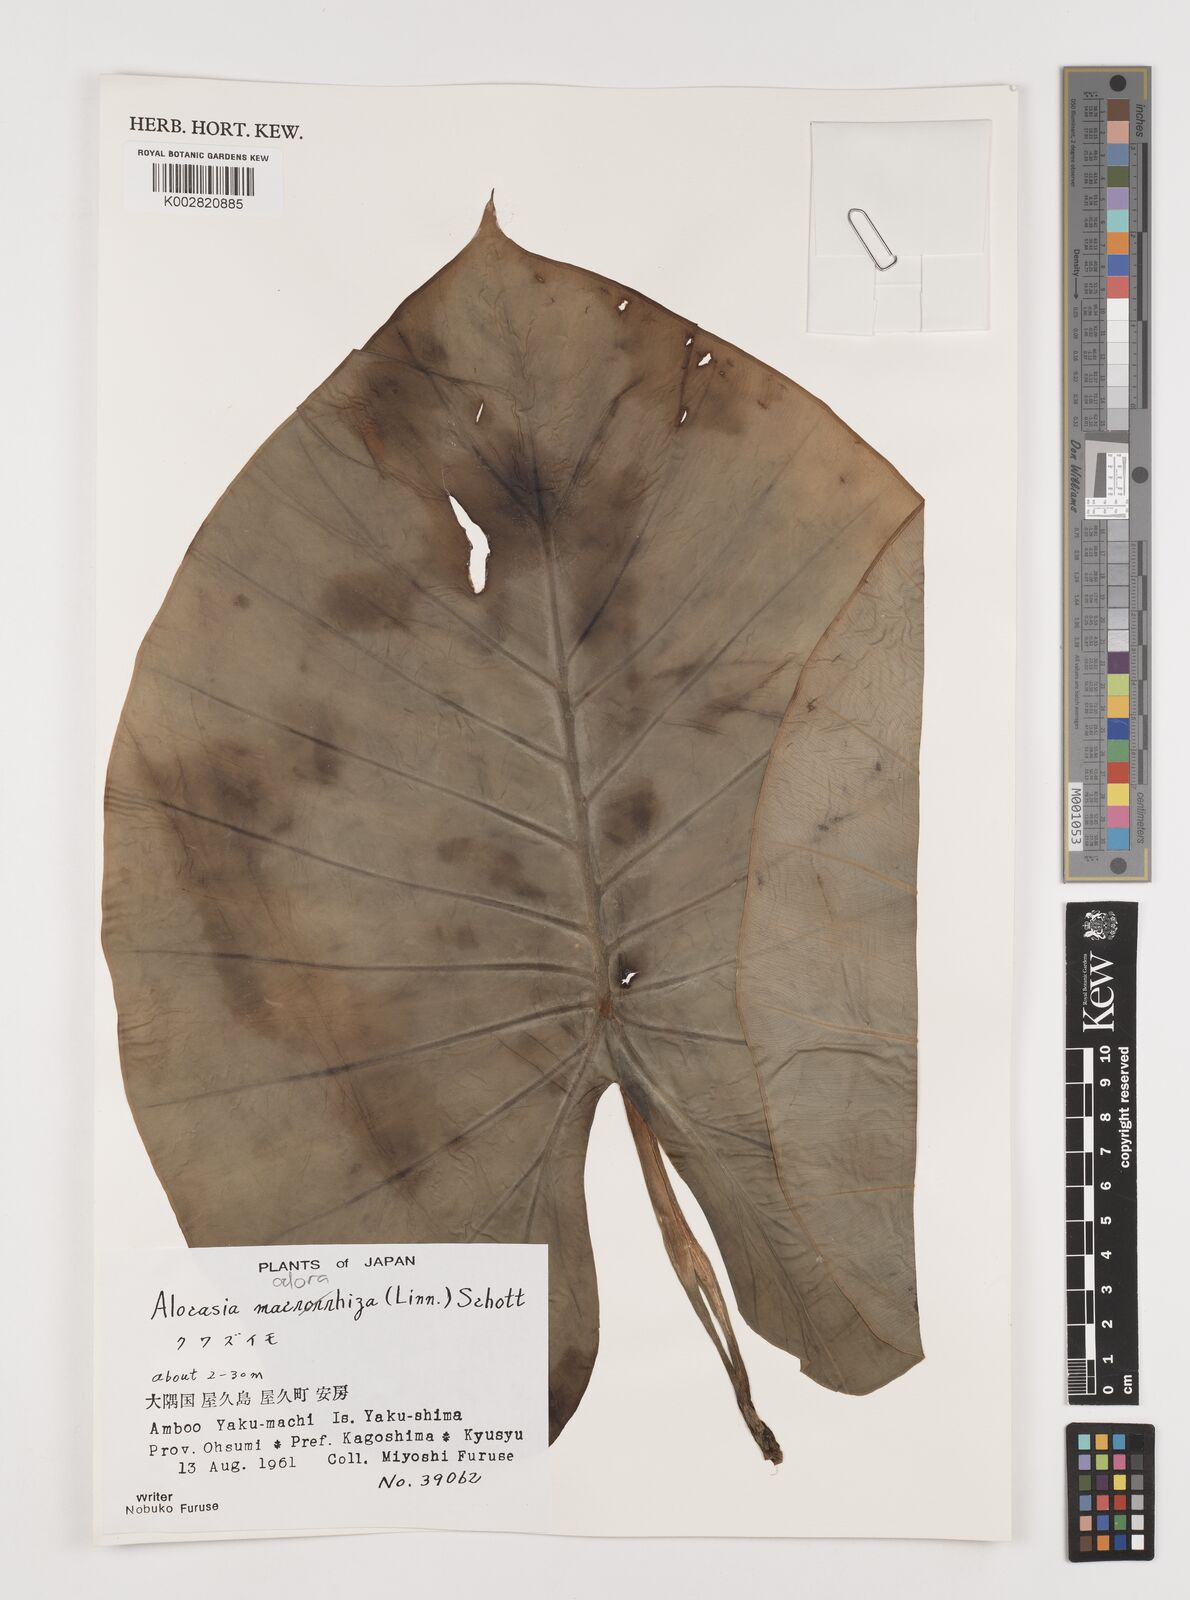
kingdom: Plantae
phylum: Tracheophyta
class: Liliopsida
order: Alismatales
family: Araceae
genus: Alocasia
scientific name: Alocasia
